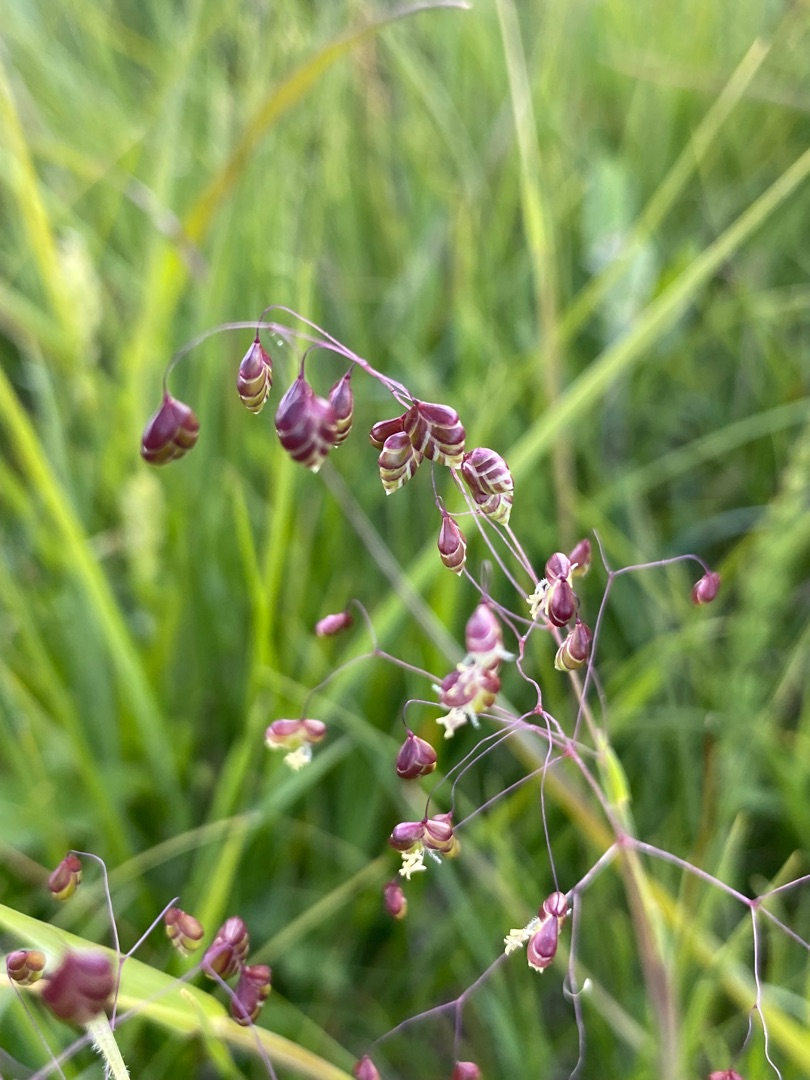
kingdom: Plantae
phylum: Tracheophyta
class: Liliopsida
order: Poales
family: Poaceae
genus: Briza
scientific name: Briza media
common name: Hjertegræs
